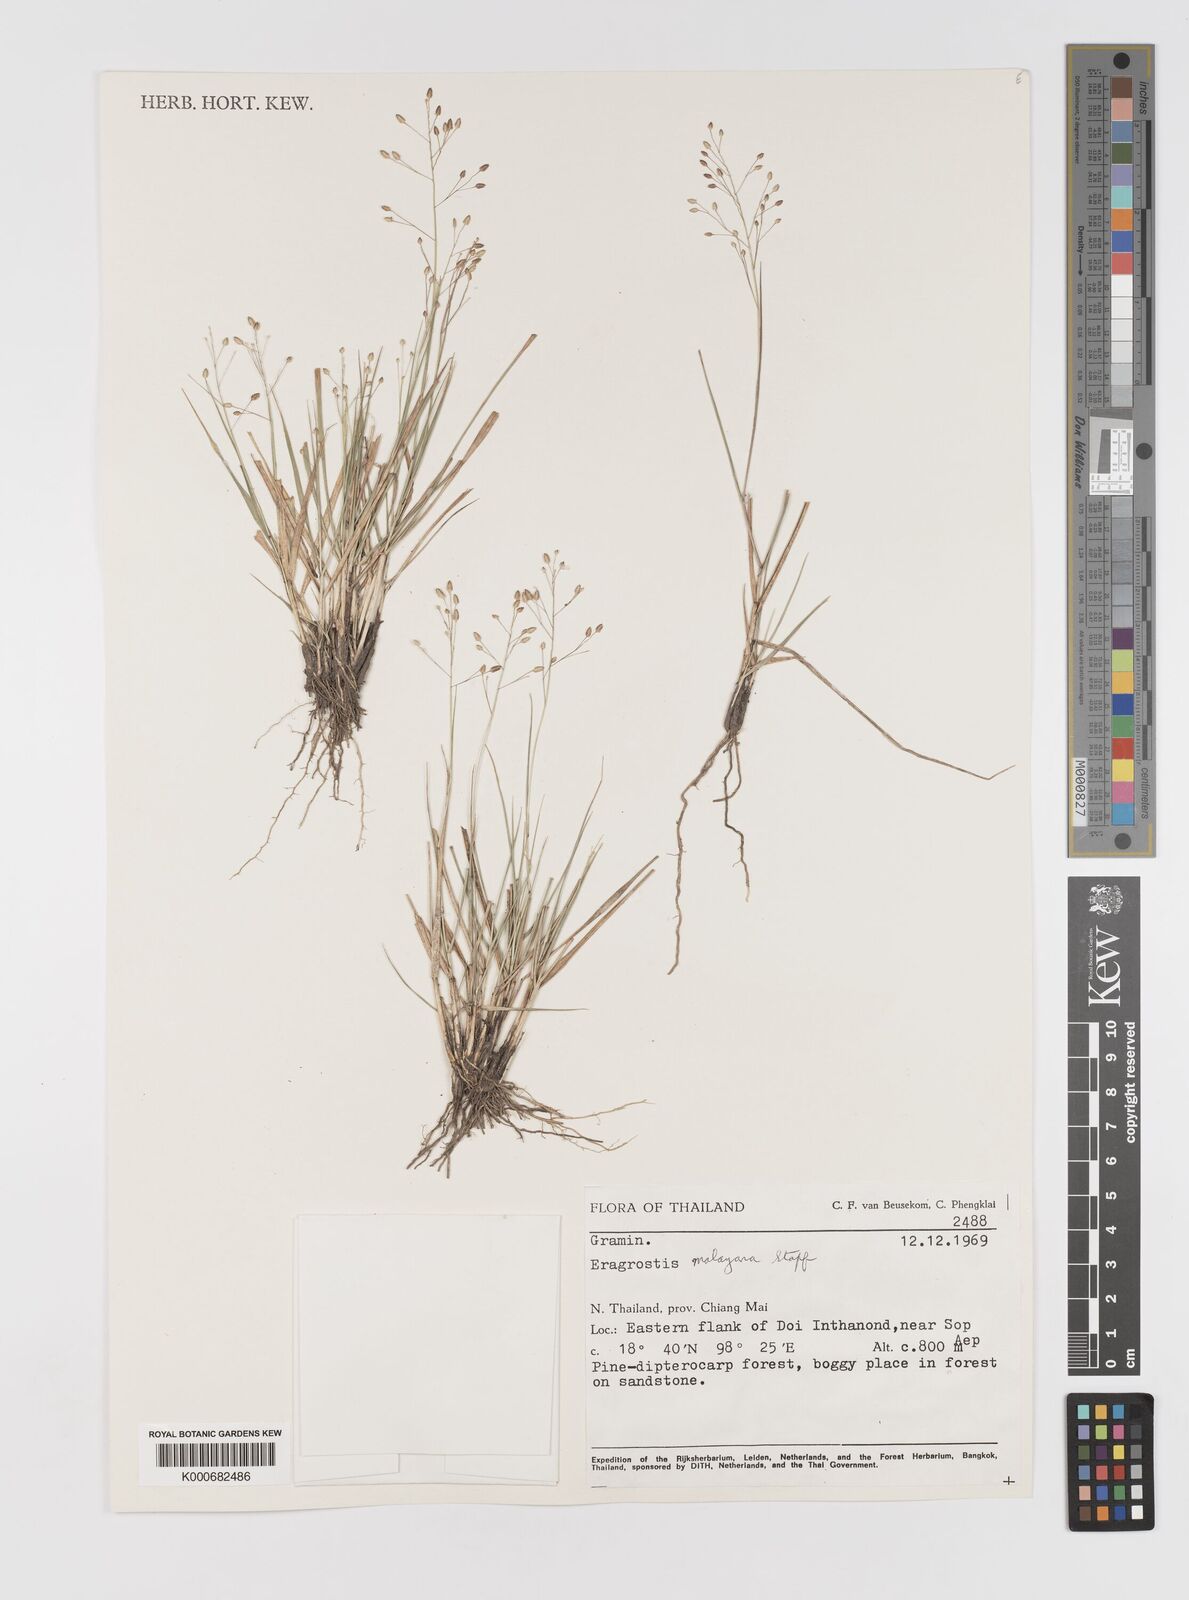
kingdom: Plantae
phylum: Tracheophyta
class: Liliopsida
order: Poales
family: Poaceae
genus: Eragrostis
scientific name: Eragrostis montana
